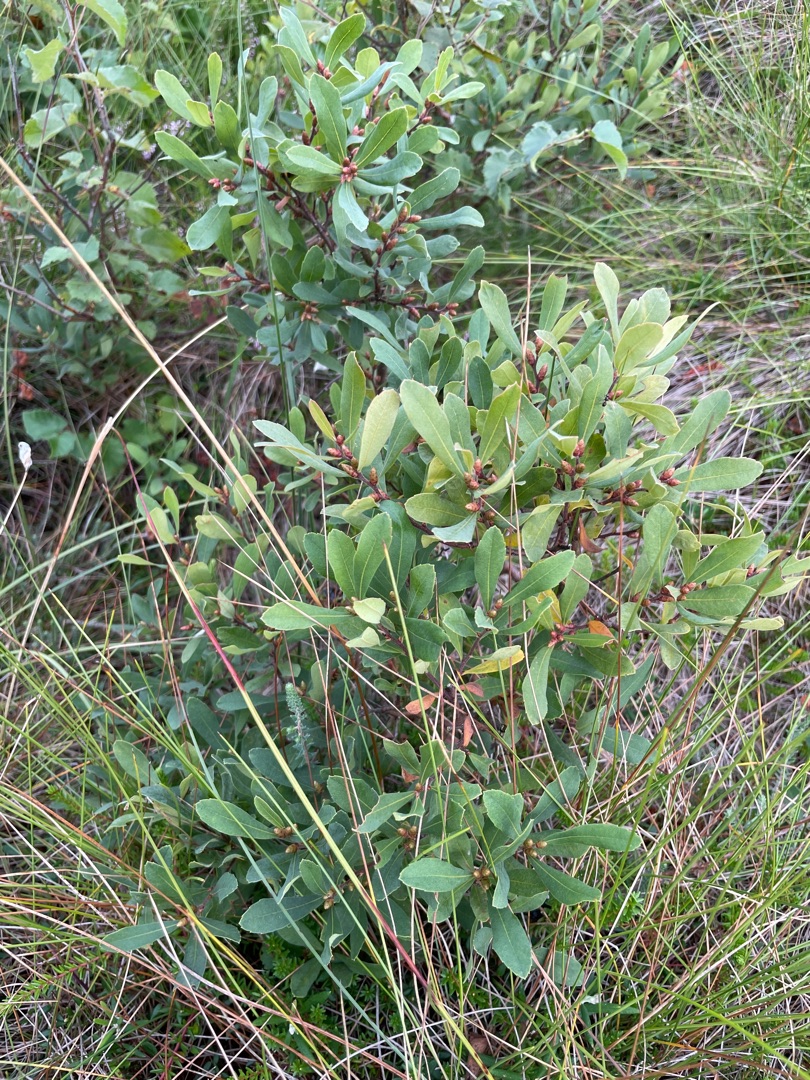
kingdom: Plantae
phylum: Tracheophyta
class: Magnoliopsida
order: Fagales
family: Myricaceae
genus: Myrica
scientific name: Myrica gale
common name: Pors
